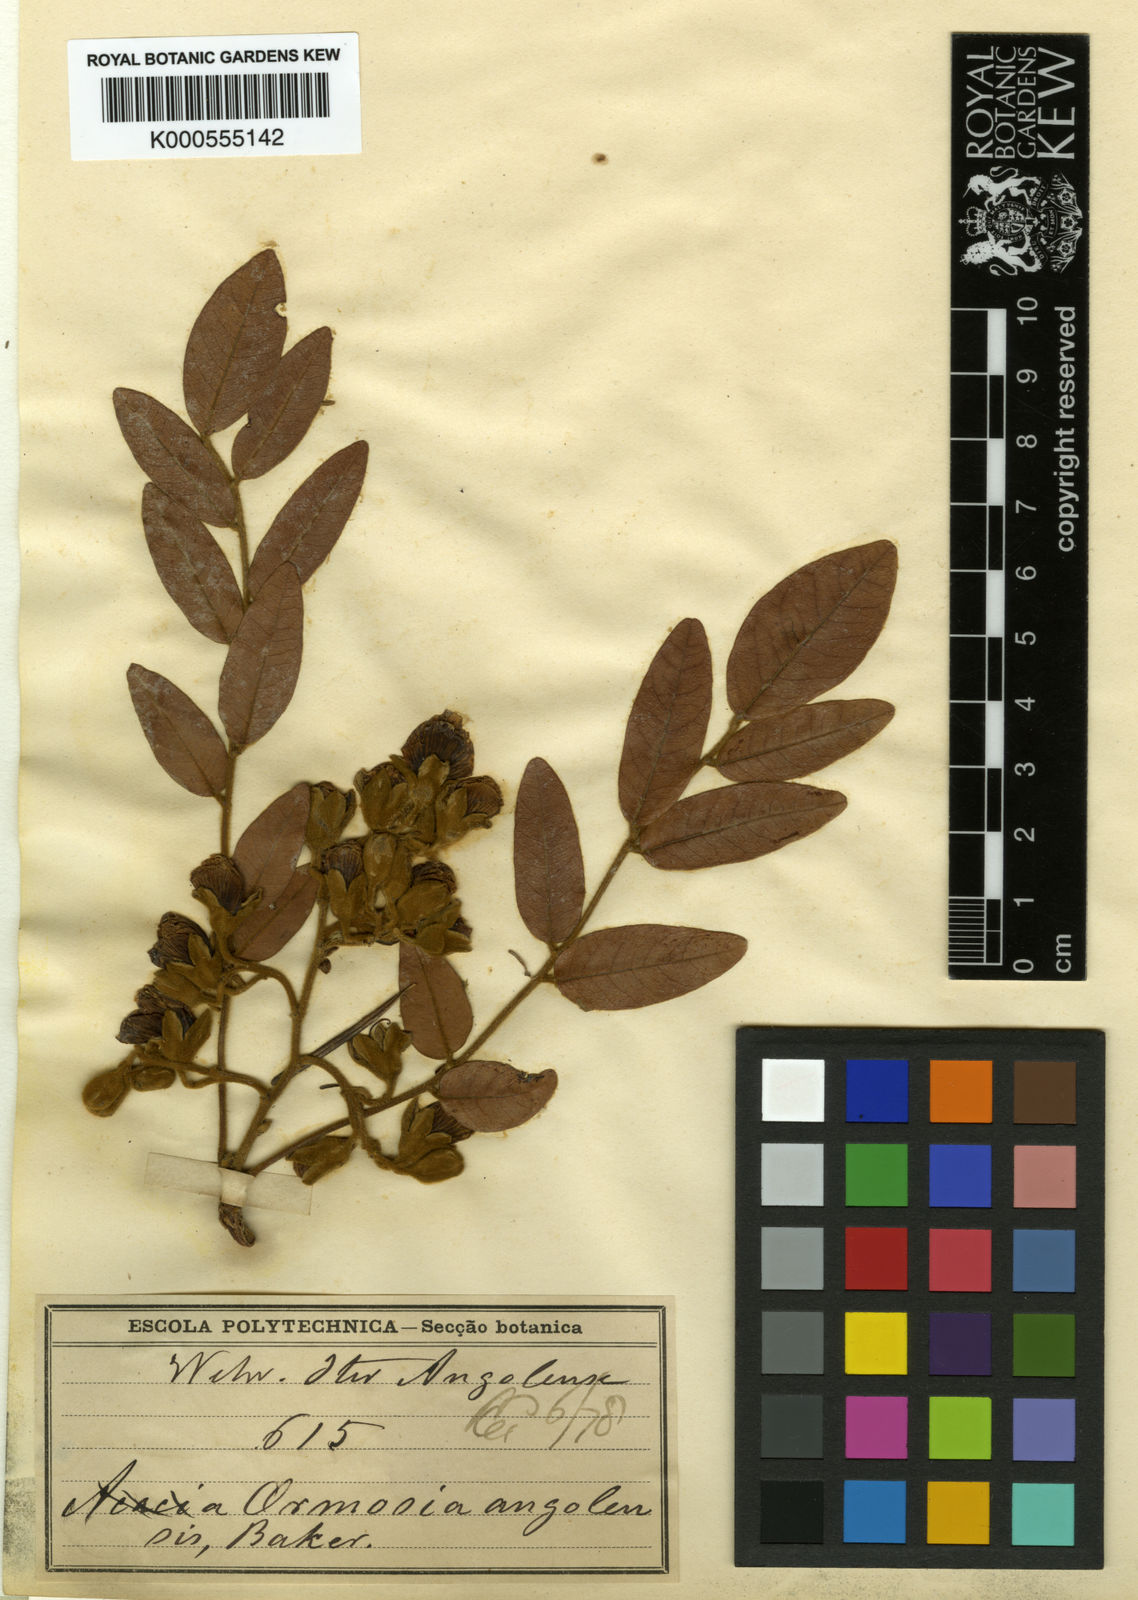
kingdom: Plantae
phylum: Tracheophyta
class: Magnoliopsida
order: Fabales
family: Fabaceae
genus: Pericopsis
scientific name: Pericopsis angolensis
